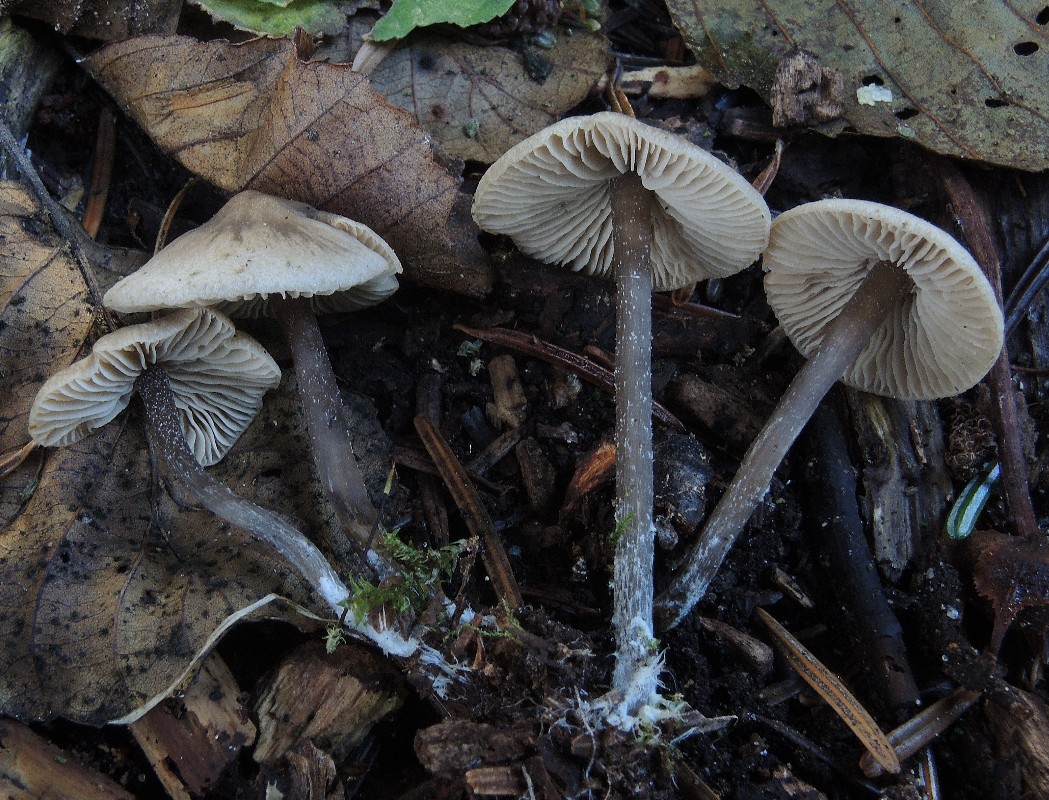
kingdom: Fungi
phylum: Basidiomycota
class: Agaricomycetes
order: Agaricales
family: Lyophyllaceae
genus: Myochromella
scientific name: Myochromella boudieri
